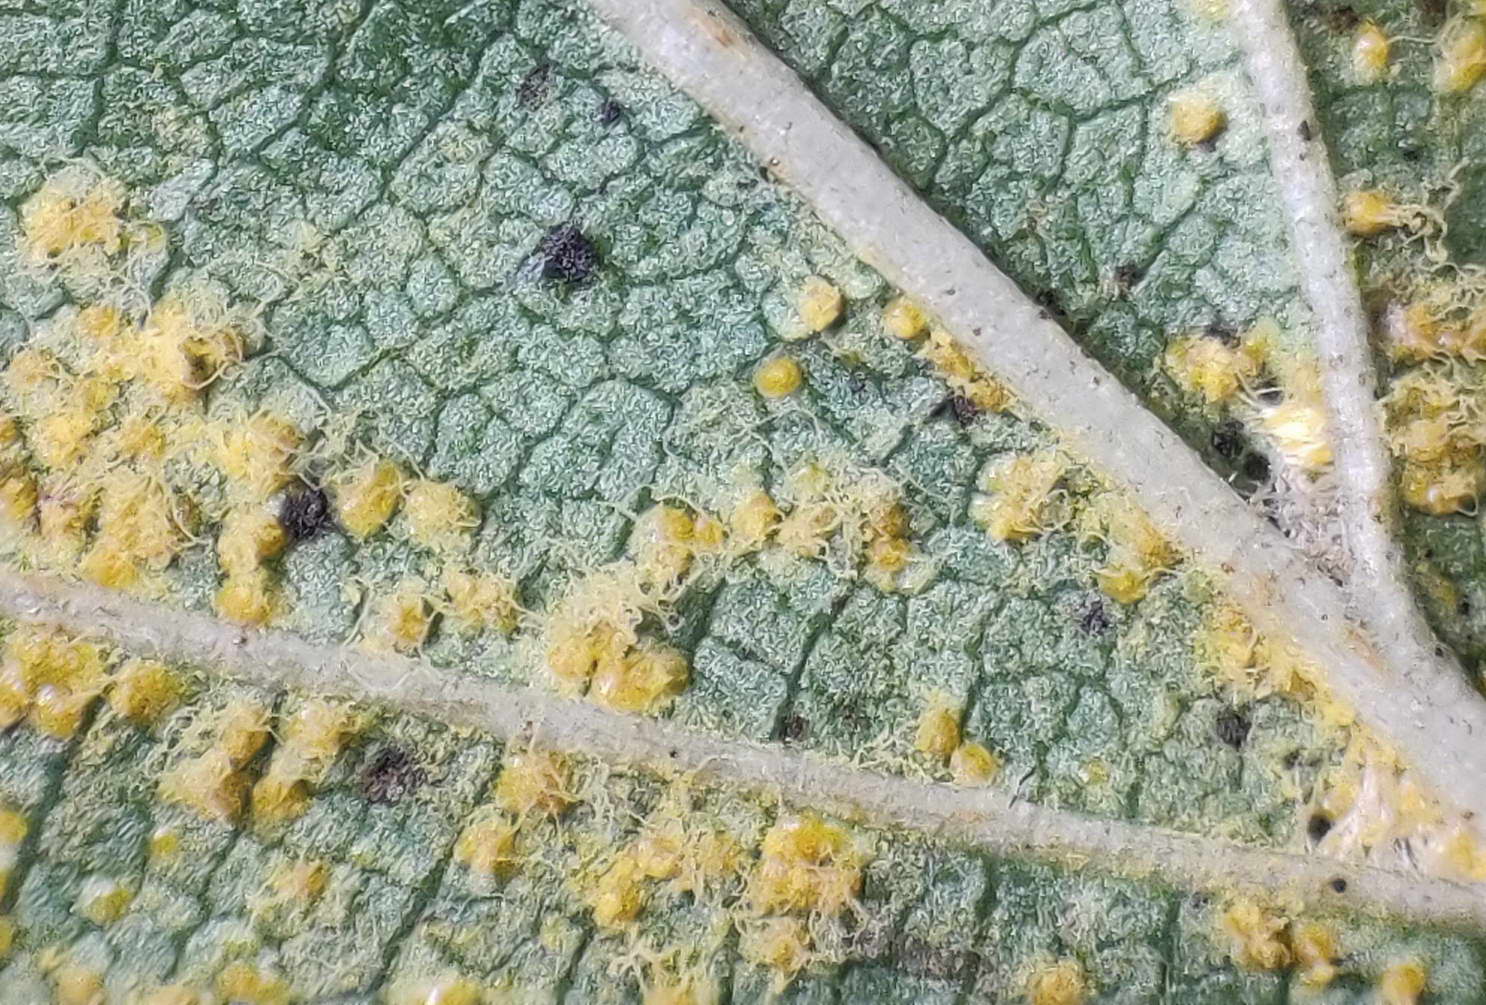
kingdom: Fungi
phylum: Basidiomycota
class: Pucciniomycetes
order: Pucciniales
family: Pucciniastraceae
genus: Melampsoridium
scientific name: Melampsoridium betulinum
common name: Birch rust
